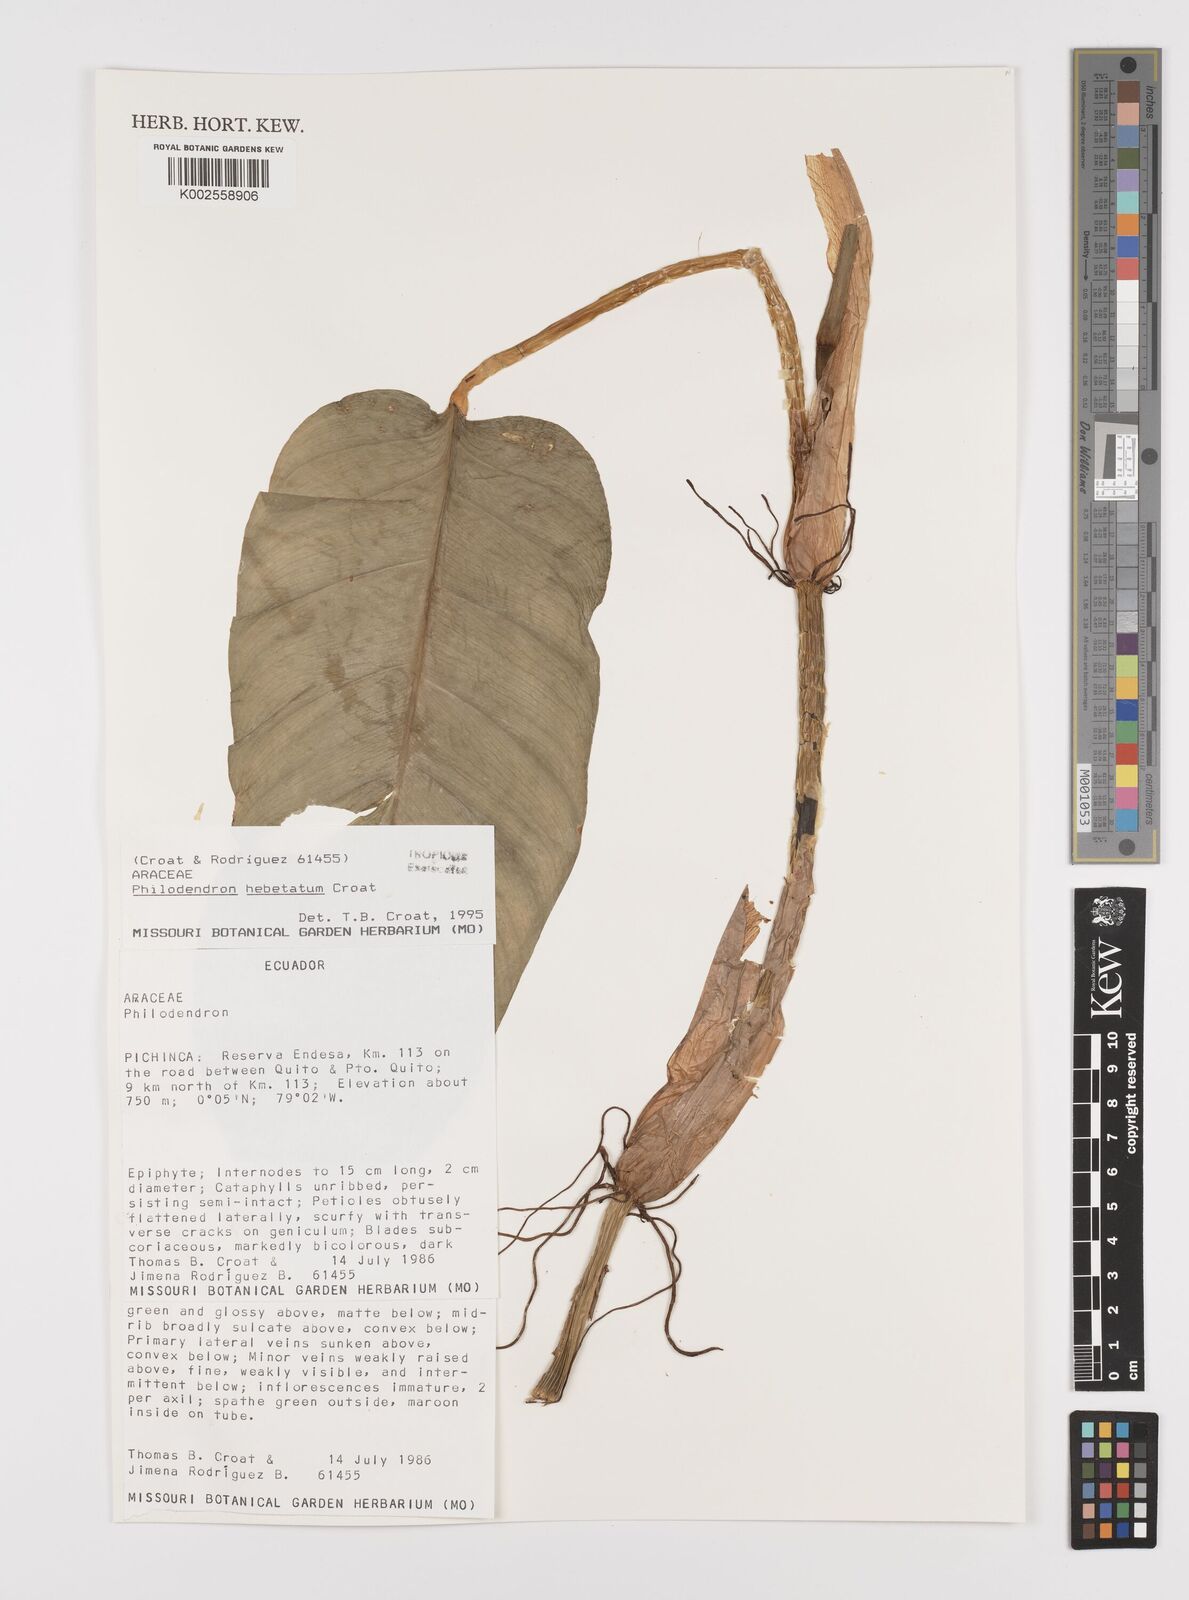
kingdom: Plantae
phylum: Tracheophyta
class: Liliopsida
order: Alismatales
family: Araceae
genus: Philodendron
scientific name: Philodendron hebetatum
